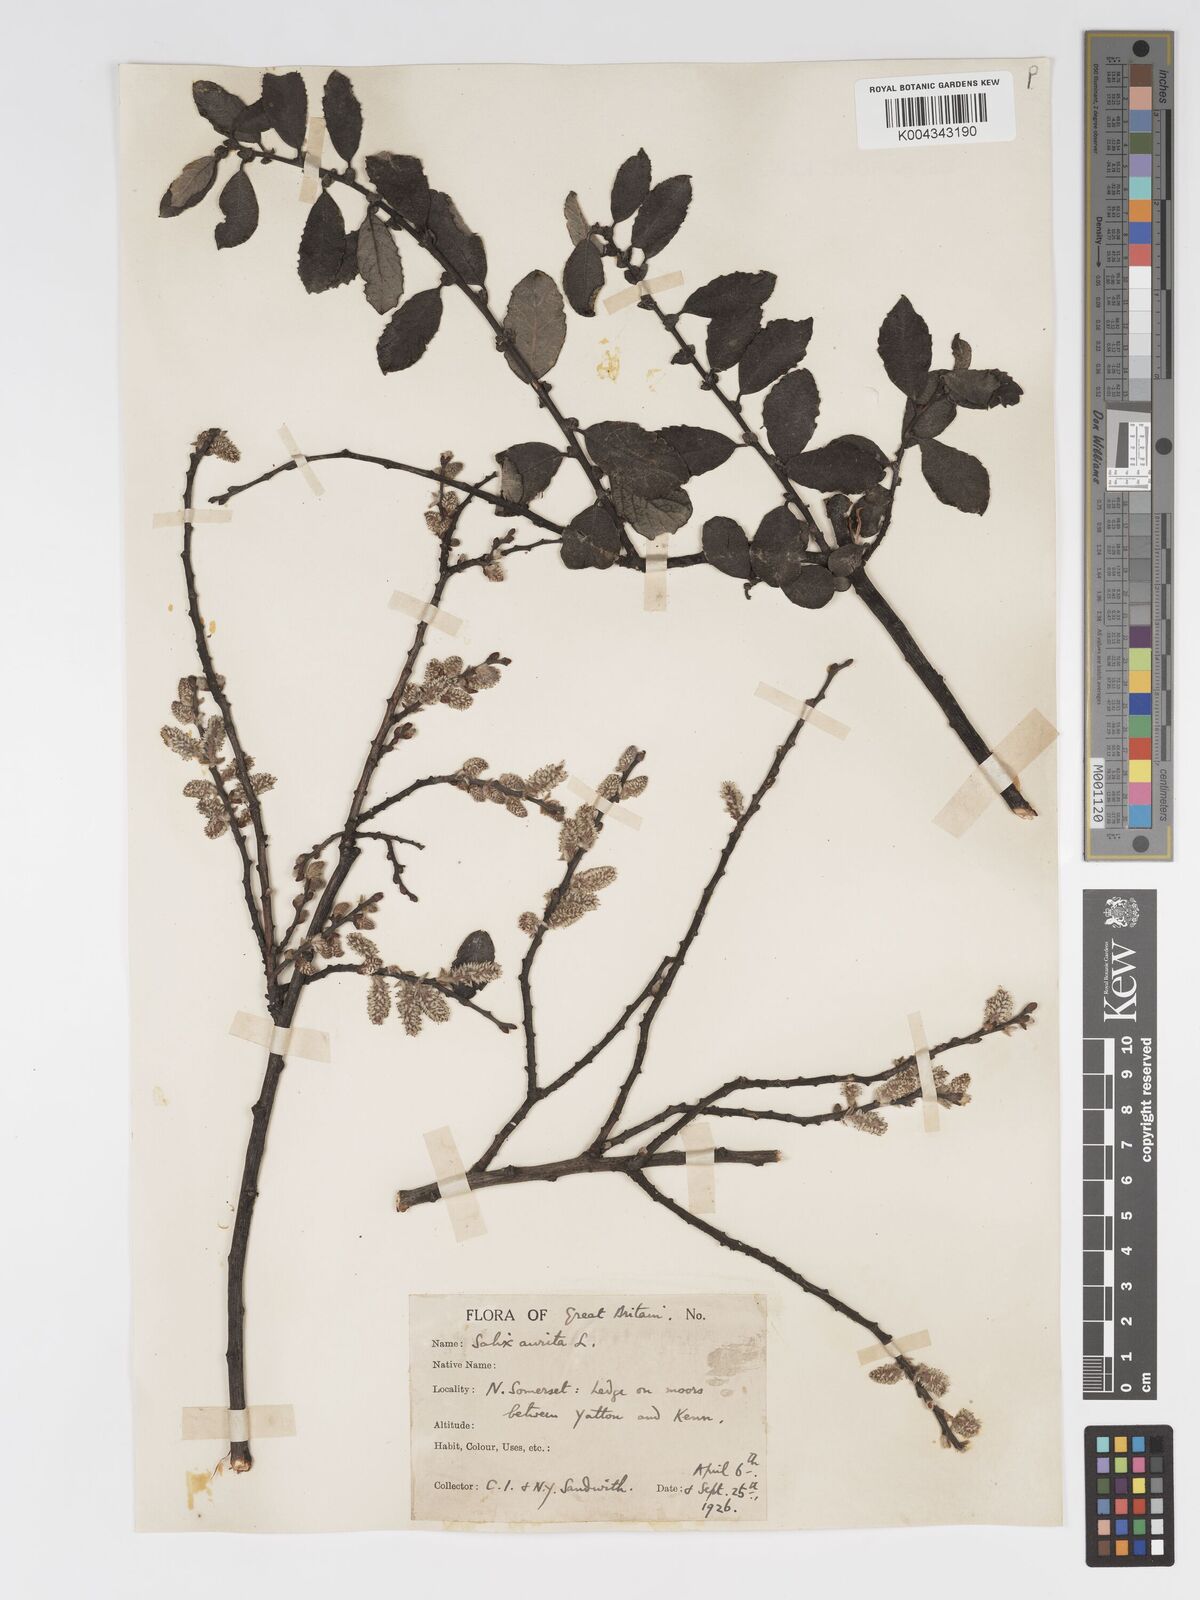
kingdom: Plantae
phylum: Tracheophyta
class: Magnoliopsida
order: Malpighiales
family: Salicaceae
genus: Salix
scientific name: Salix aurita
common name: Eared willow
